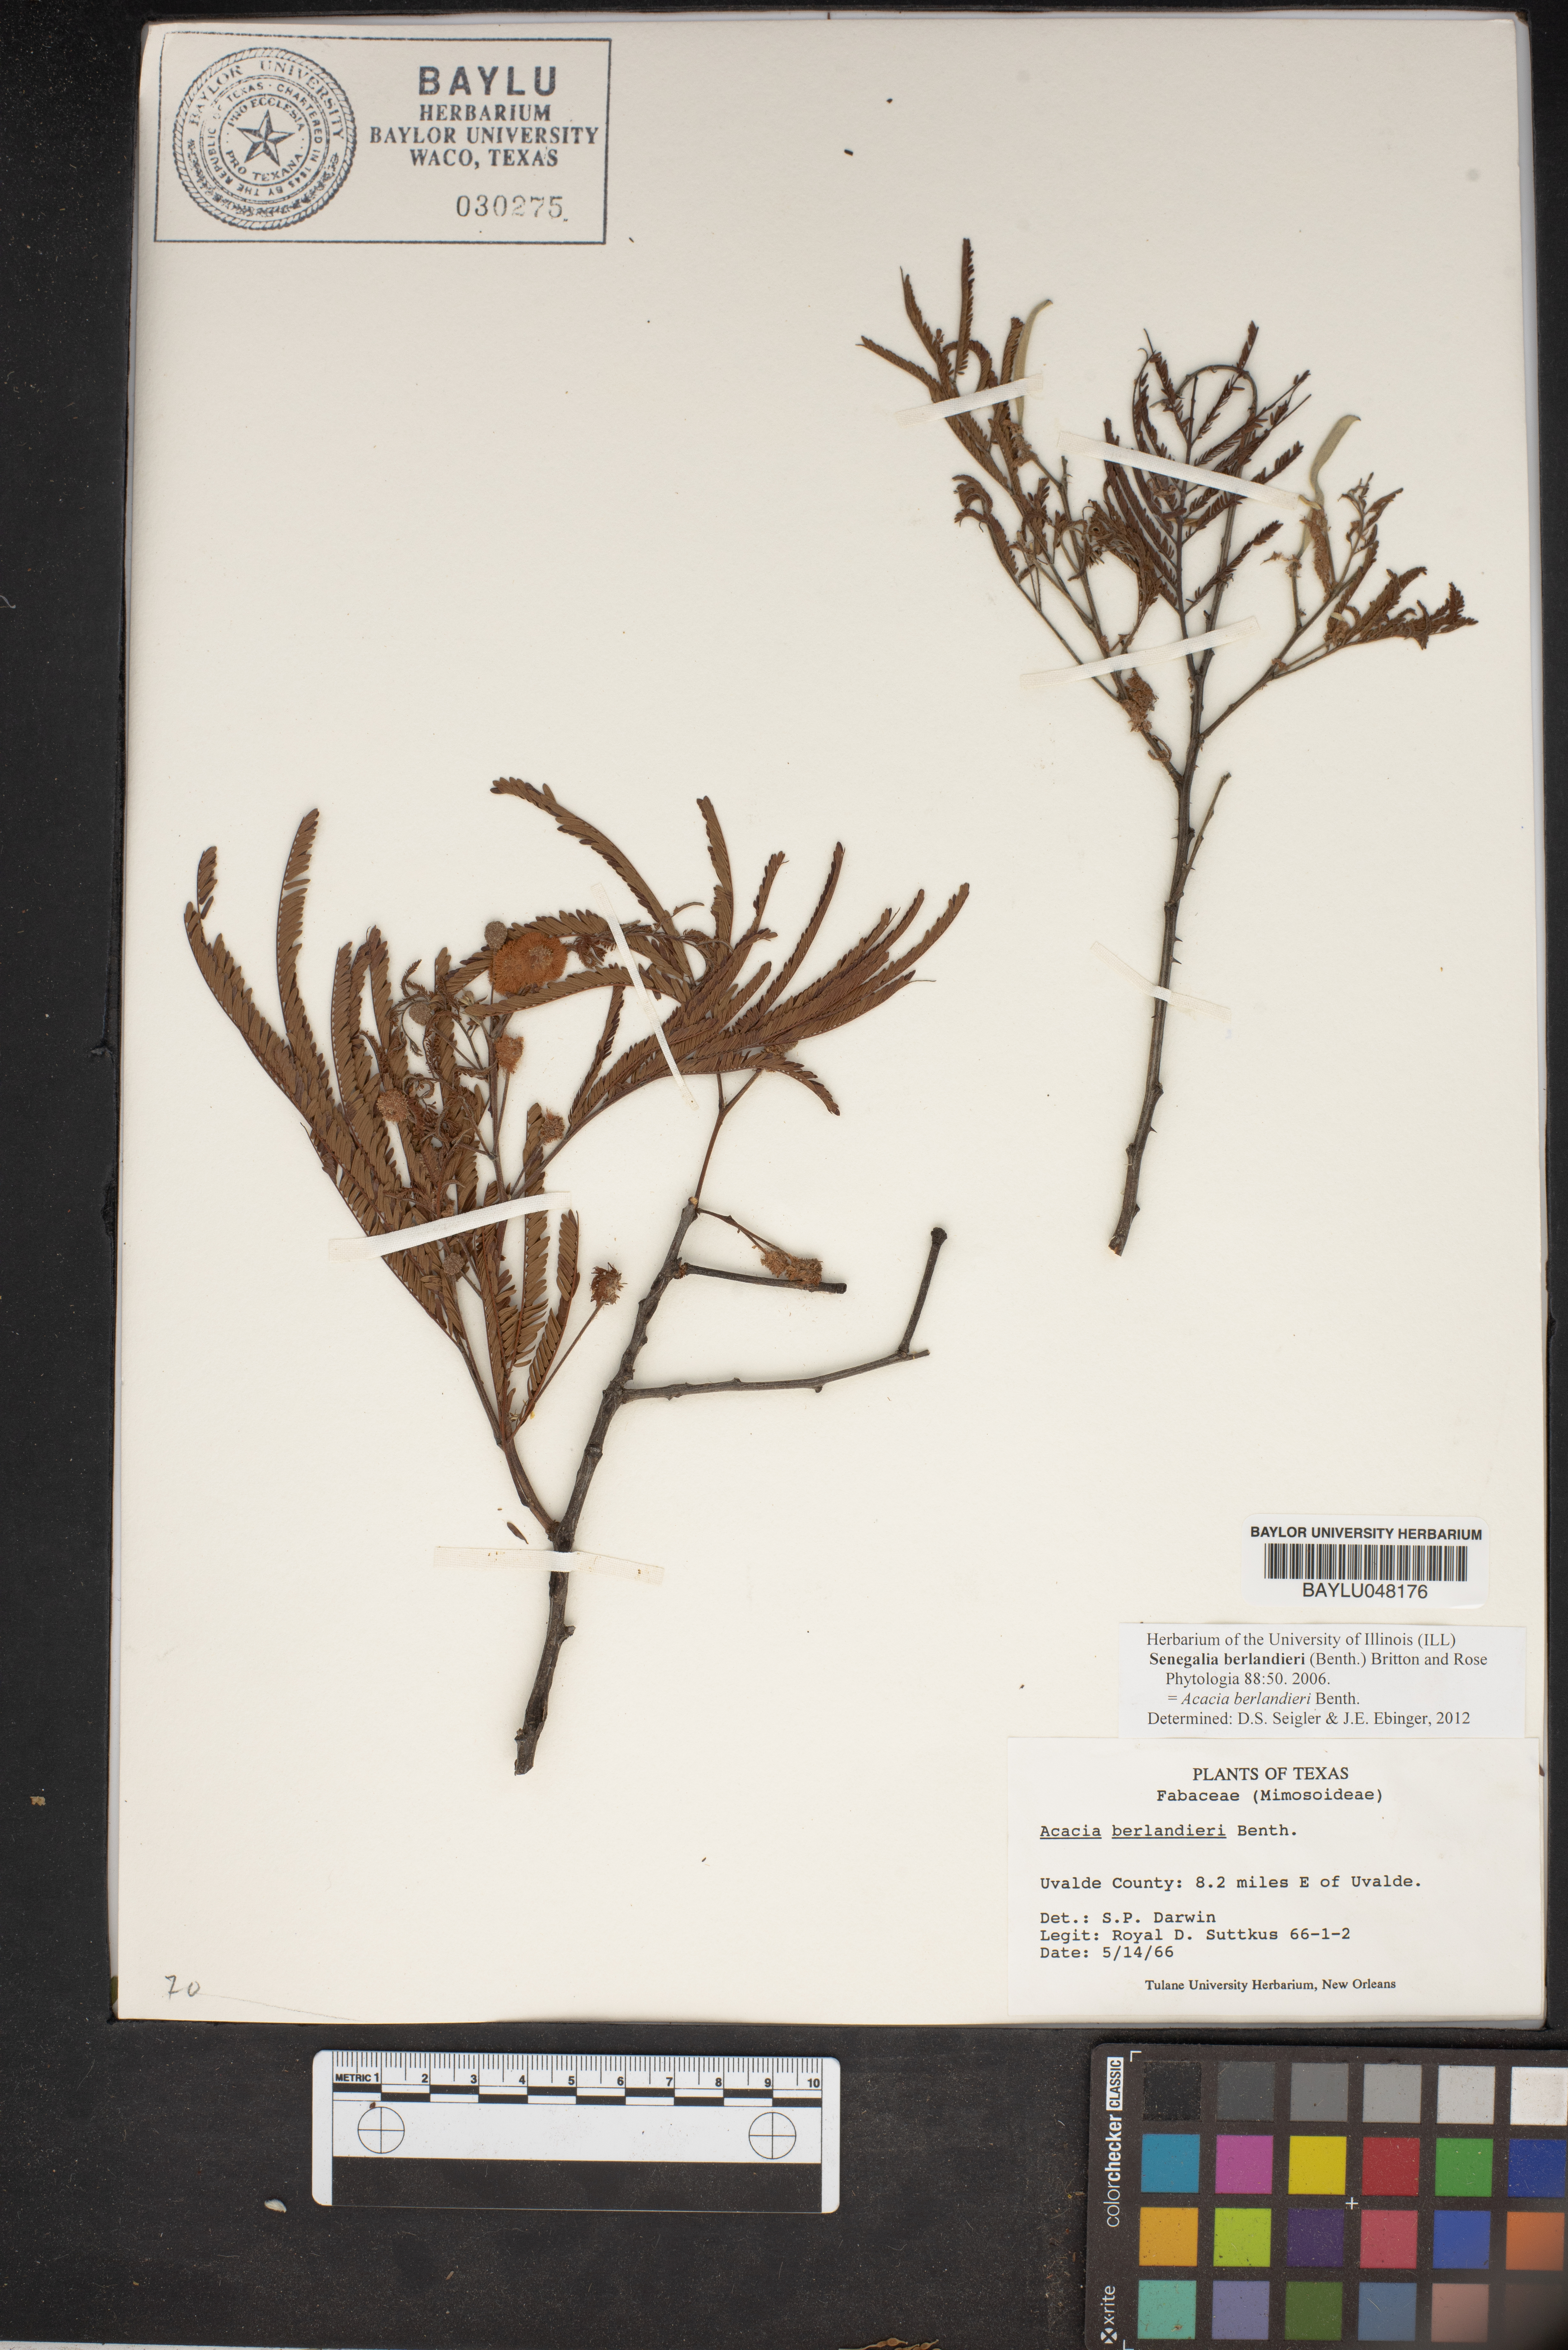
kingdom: Plantae
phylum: Tracheophyta
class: Magnoliopsida
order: Fabales
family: Fabaceae
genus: Senegalia
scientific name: Senegalia berlandieri
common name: Berlandier acacia
